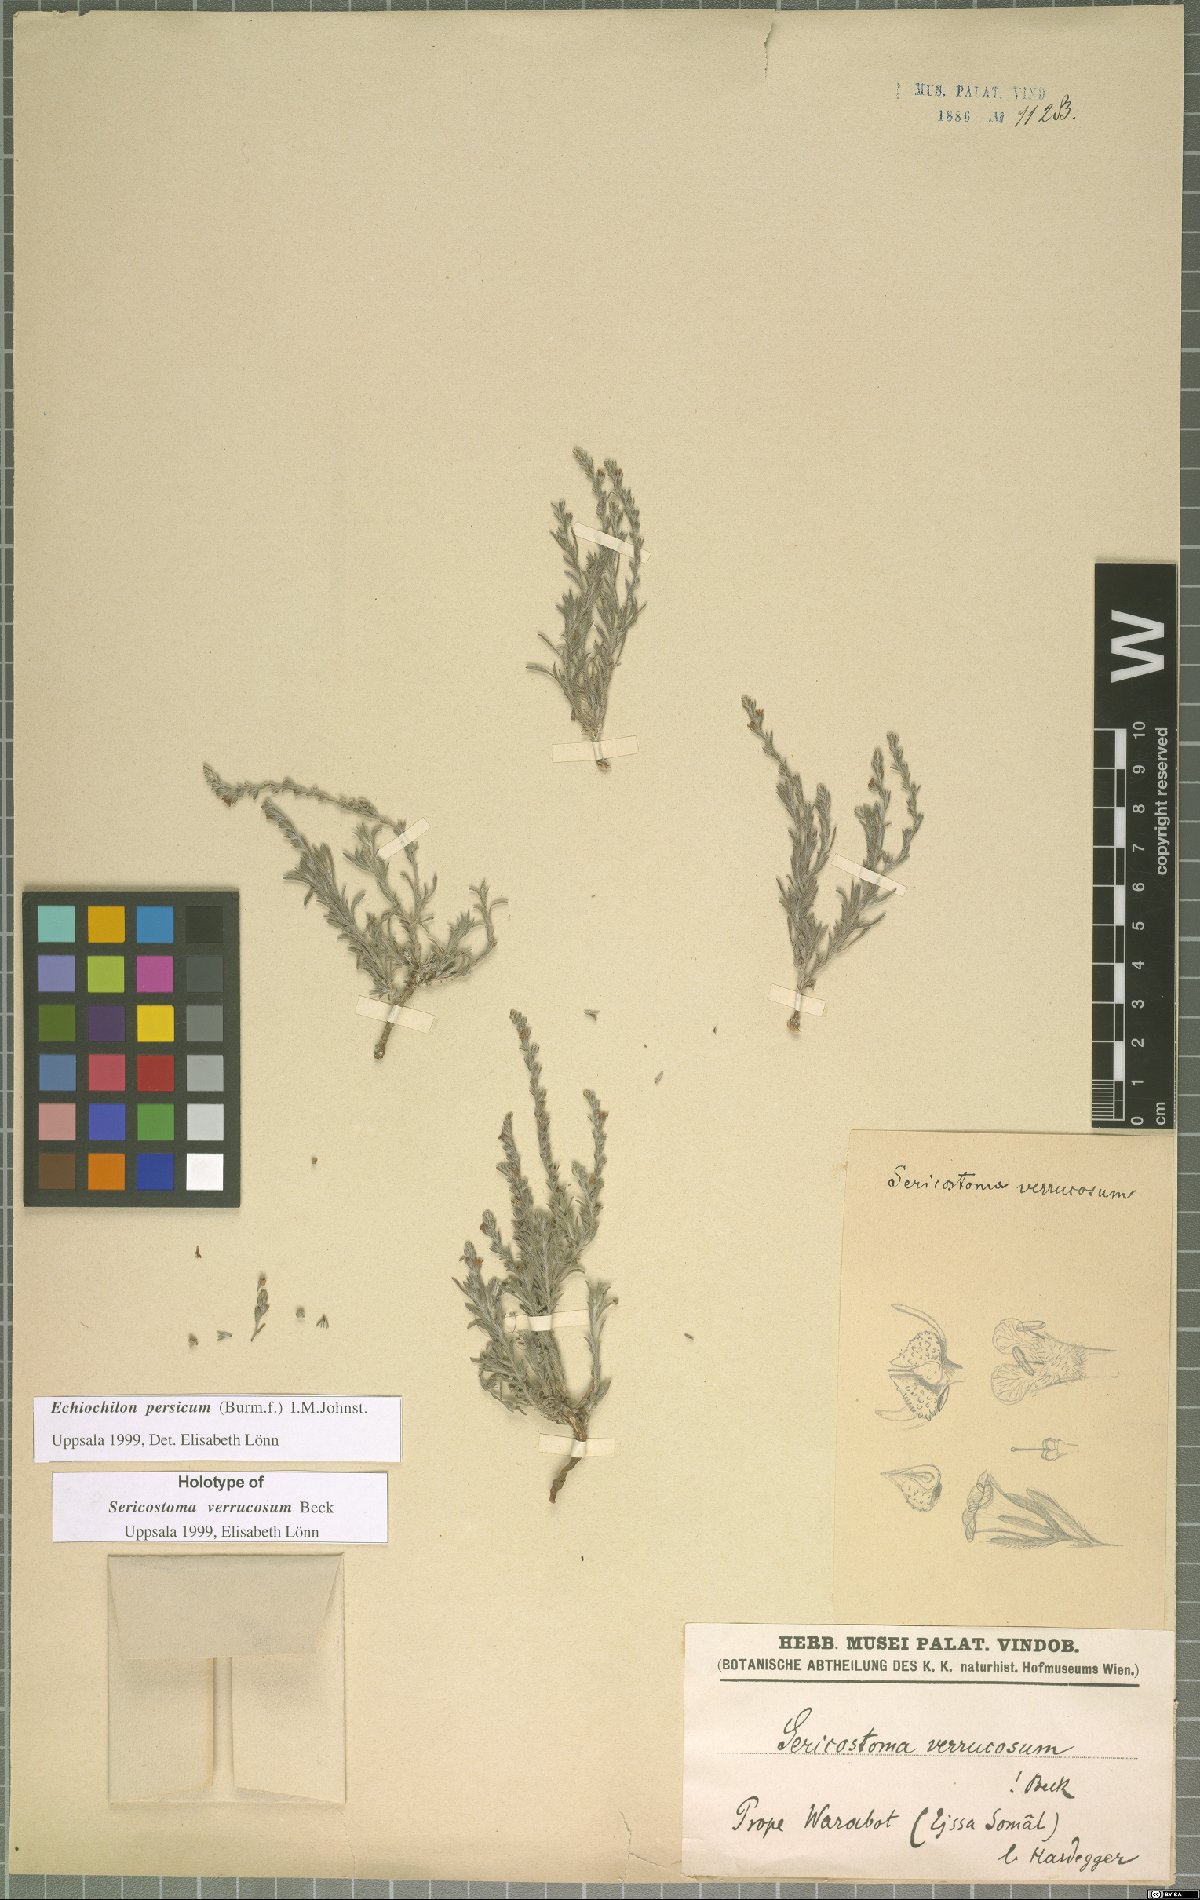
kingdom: Plantae
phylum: Tracheophyta
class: Magnoliopsida
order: Boraginales
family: Boraginaceae
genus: Echiochilon
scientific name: Echiochilon persicum
